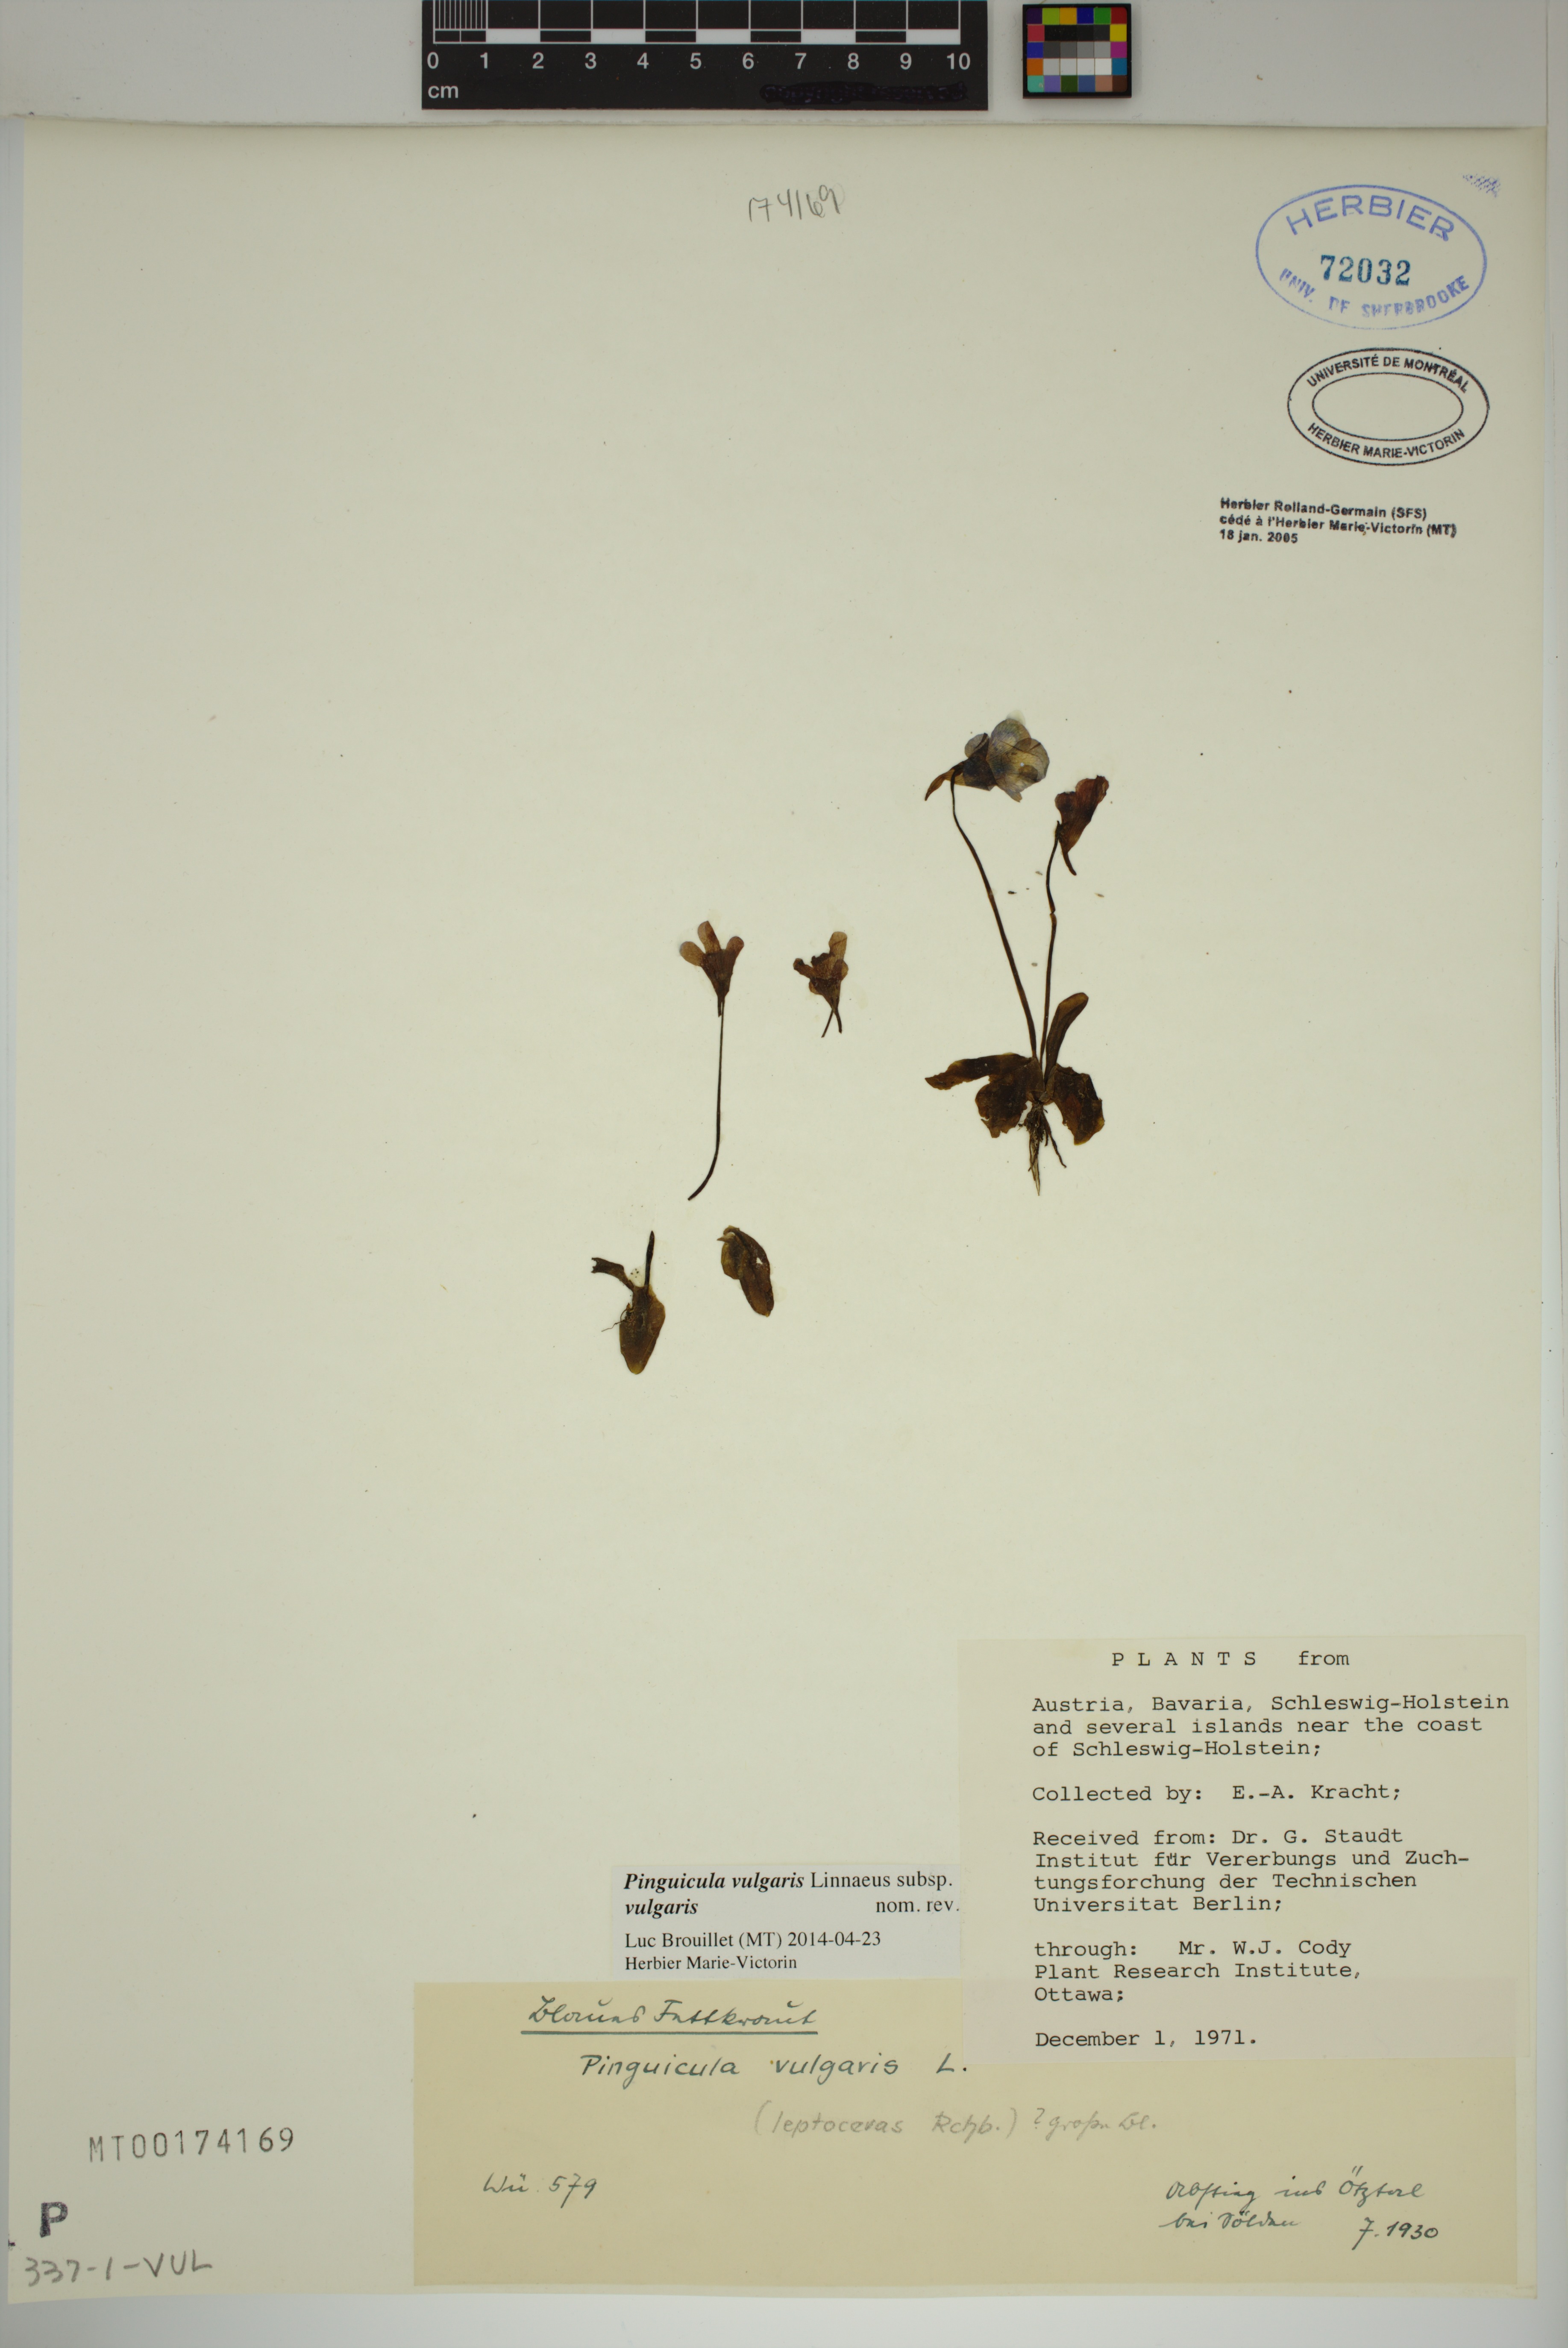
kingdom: Plantae
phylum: Tracheophyta
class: Magnoliopsida
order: Lamiales
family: Lentibulariaceae
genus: Pinguicula
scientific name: Pinguicula vulgaris
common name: Common butterwort
